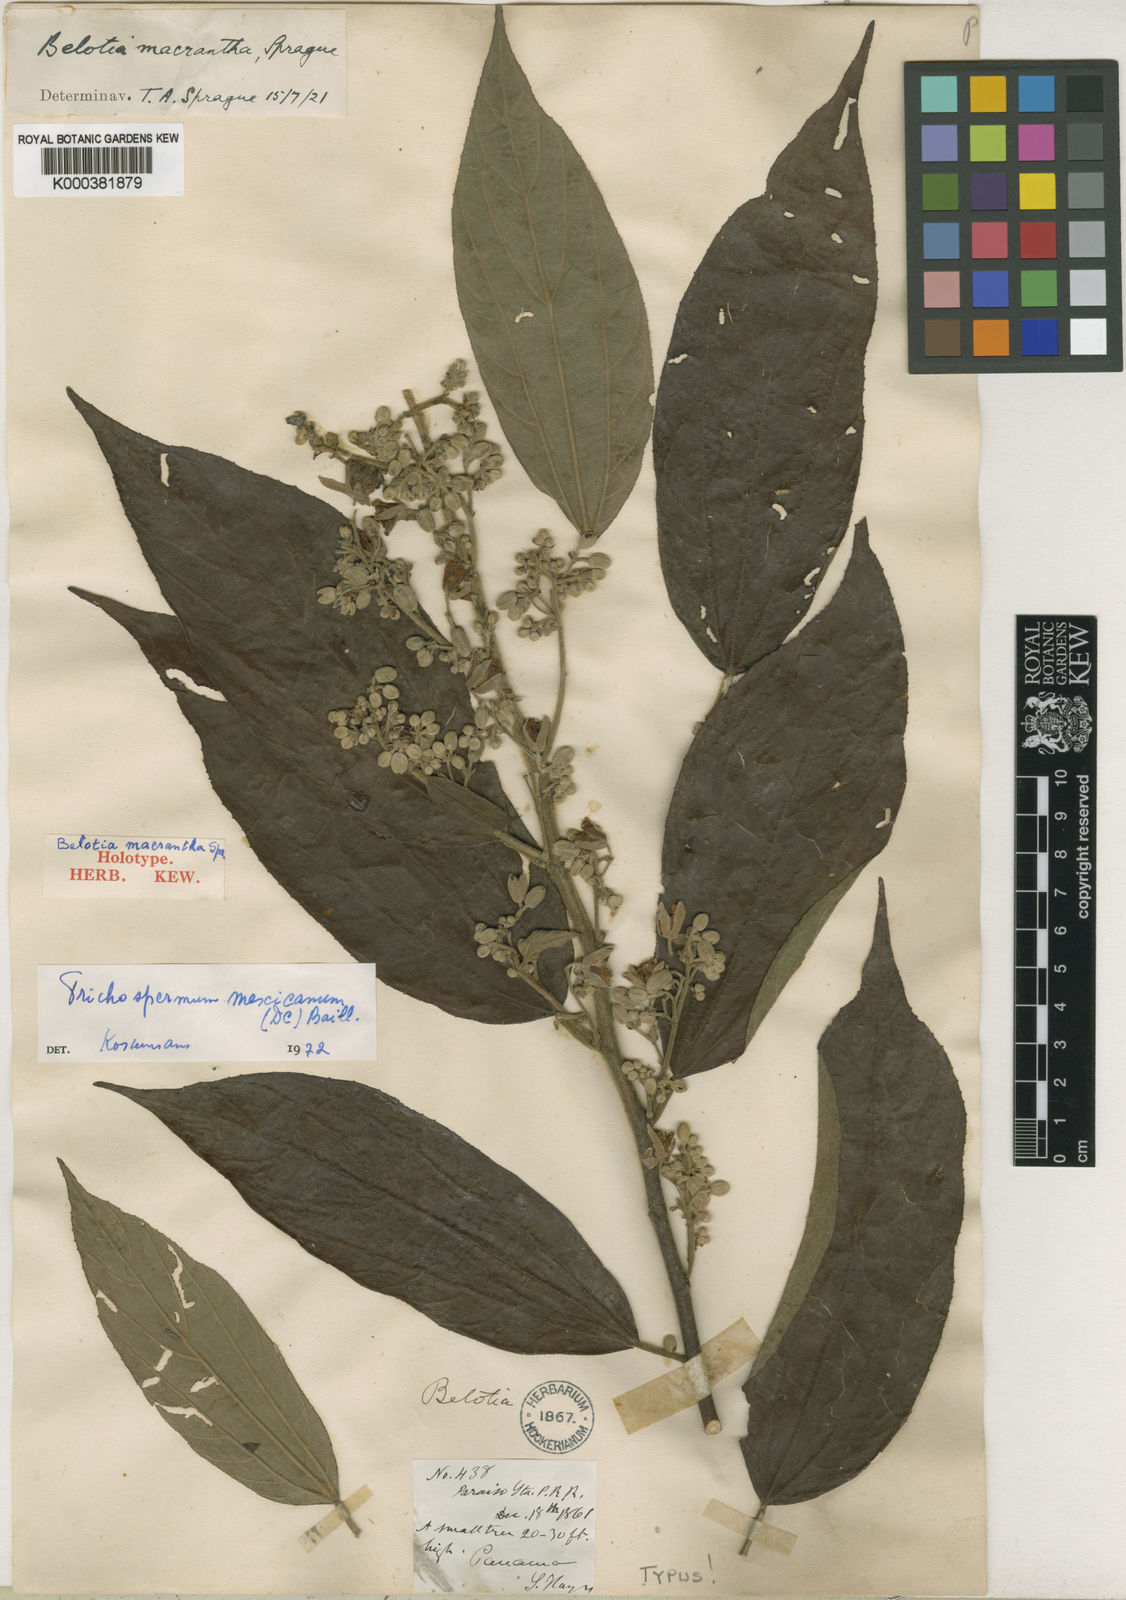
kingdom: Plantae
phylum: Tracheophyta
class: Magnoliopsida
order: Malvales
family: Malvaceae
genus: Trichospermum
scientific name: Trichospermum mexicanum
